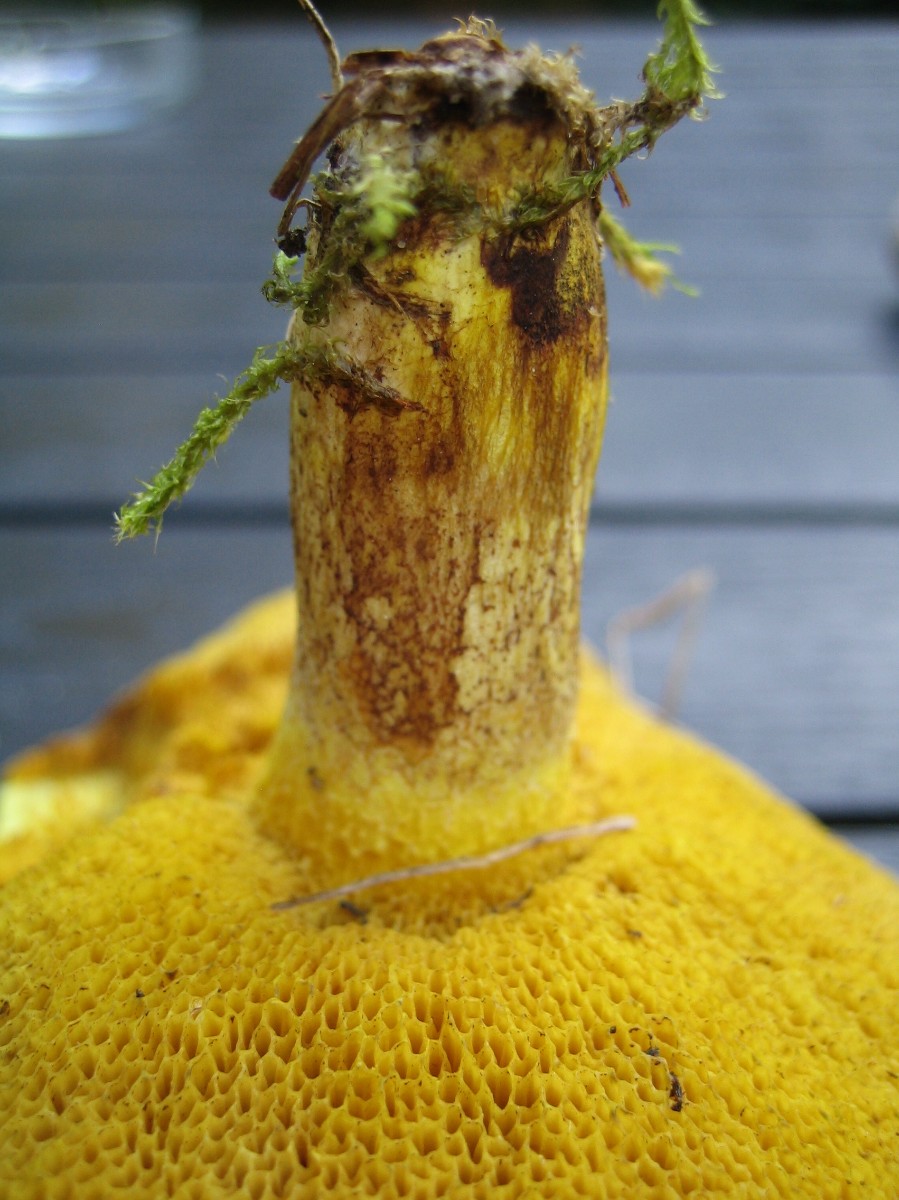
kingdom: Fungi
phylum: Basidiomycota
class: Agaricomycetes
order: Boletales
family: Suillaceae
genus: Suillus
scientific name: Suillus granulatus
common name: kornet slimrørhat
